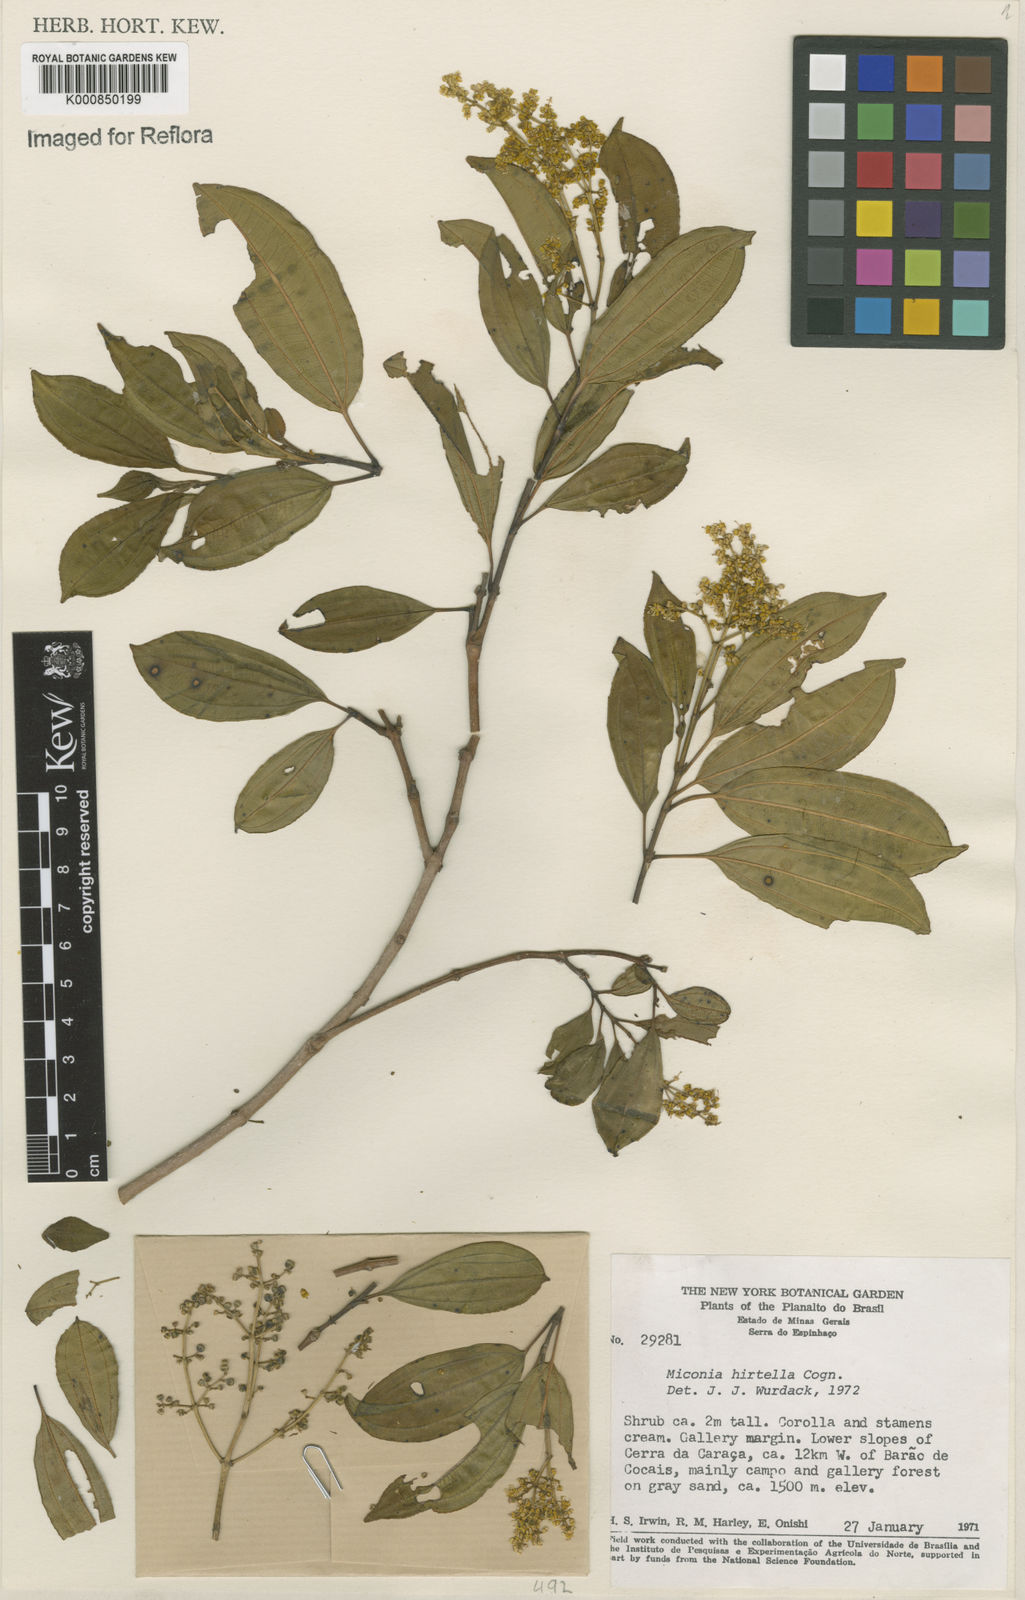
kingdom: Plantae
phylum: Tracheophyta
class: Magnoliopsida
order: Myrtales
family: Melastomataceae
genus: Miconia
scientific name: Miconia hirta
